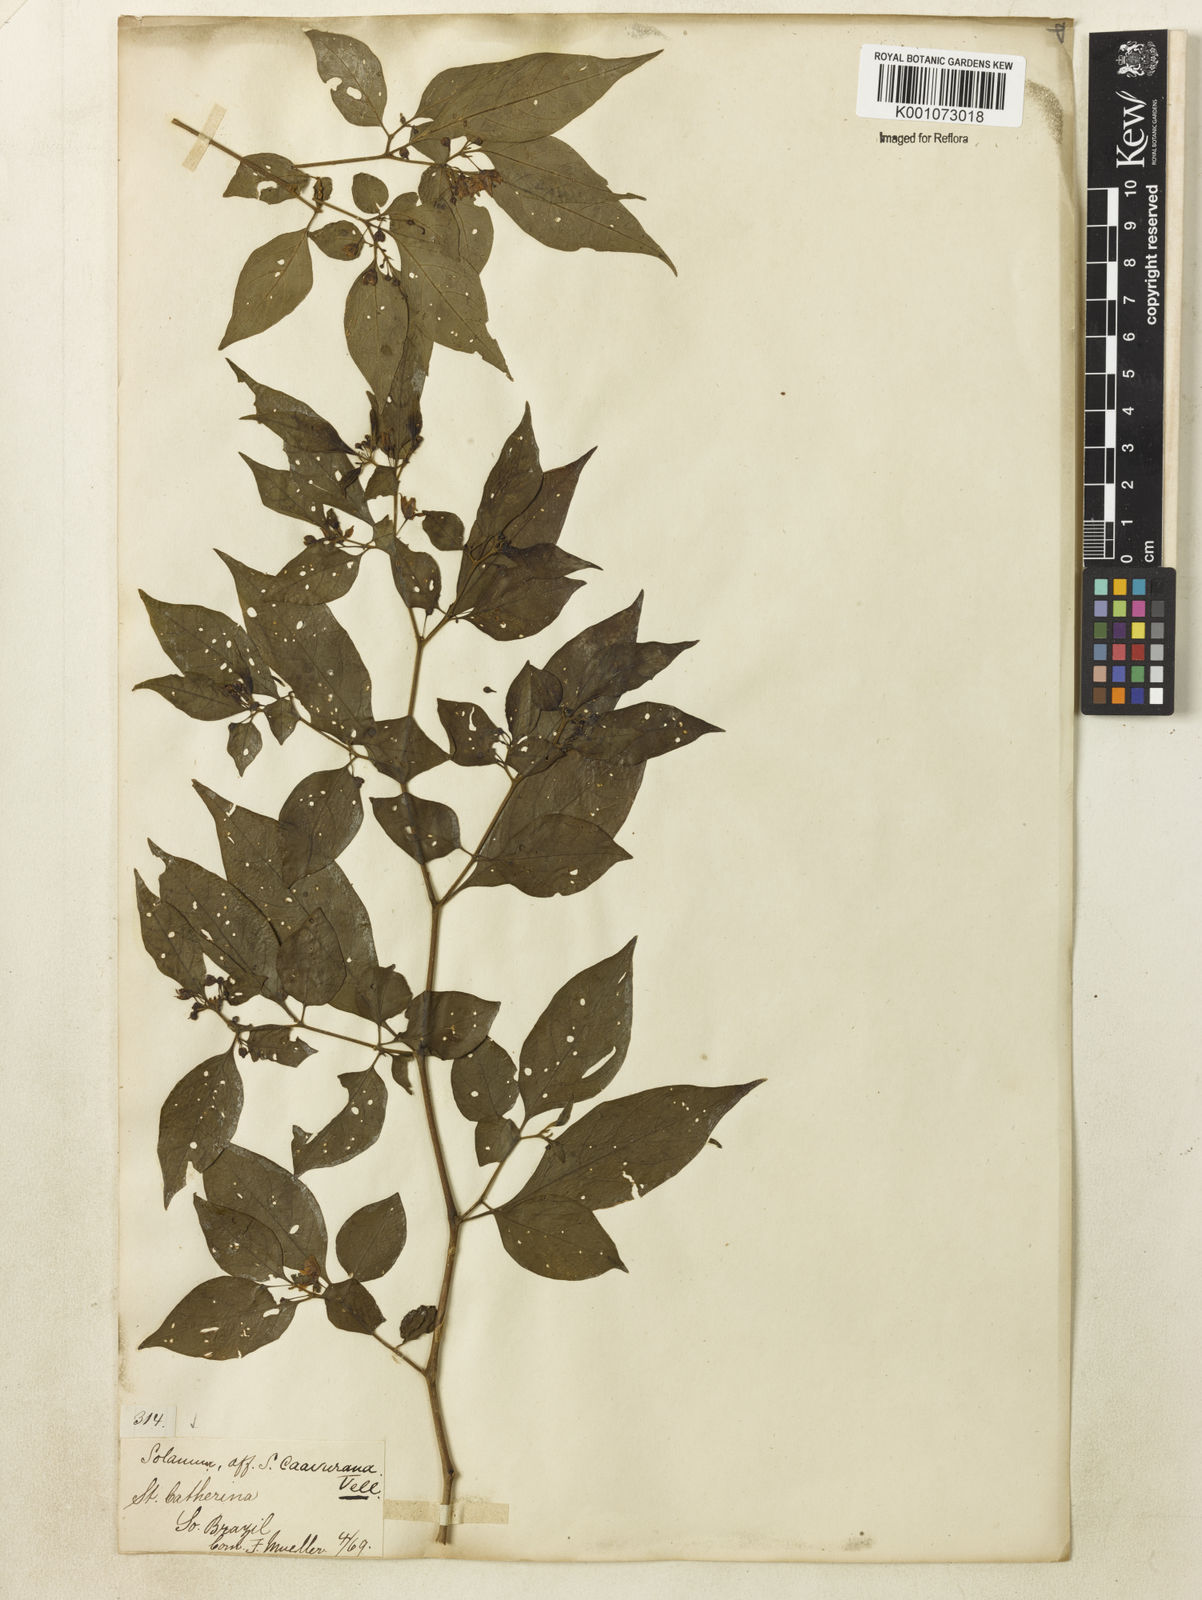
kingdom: Plantae
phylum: Tracheophyta
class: Magnoliopsida
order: Solanales
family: Solanaceae
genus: Athenaea
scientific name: Athenaea fasciculata
